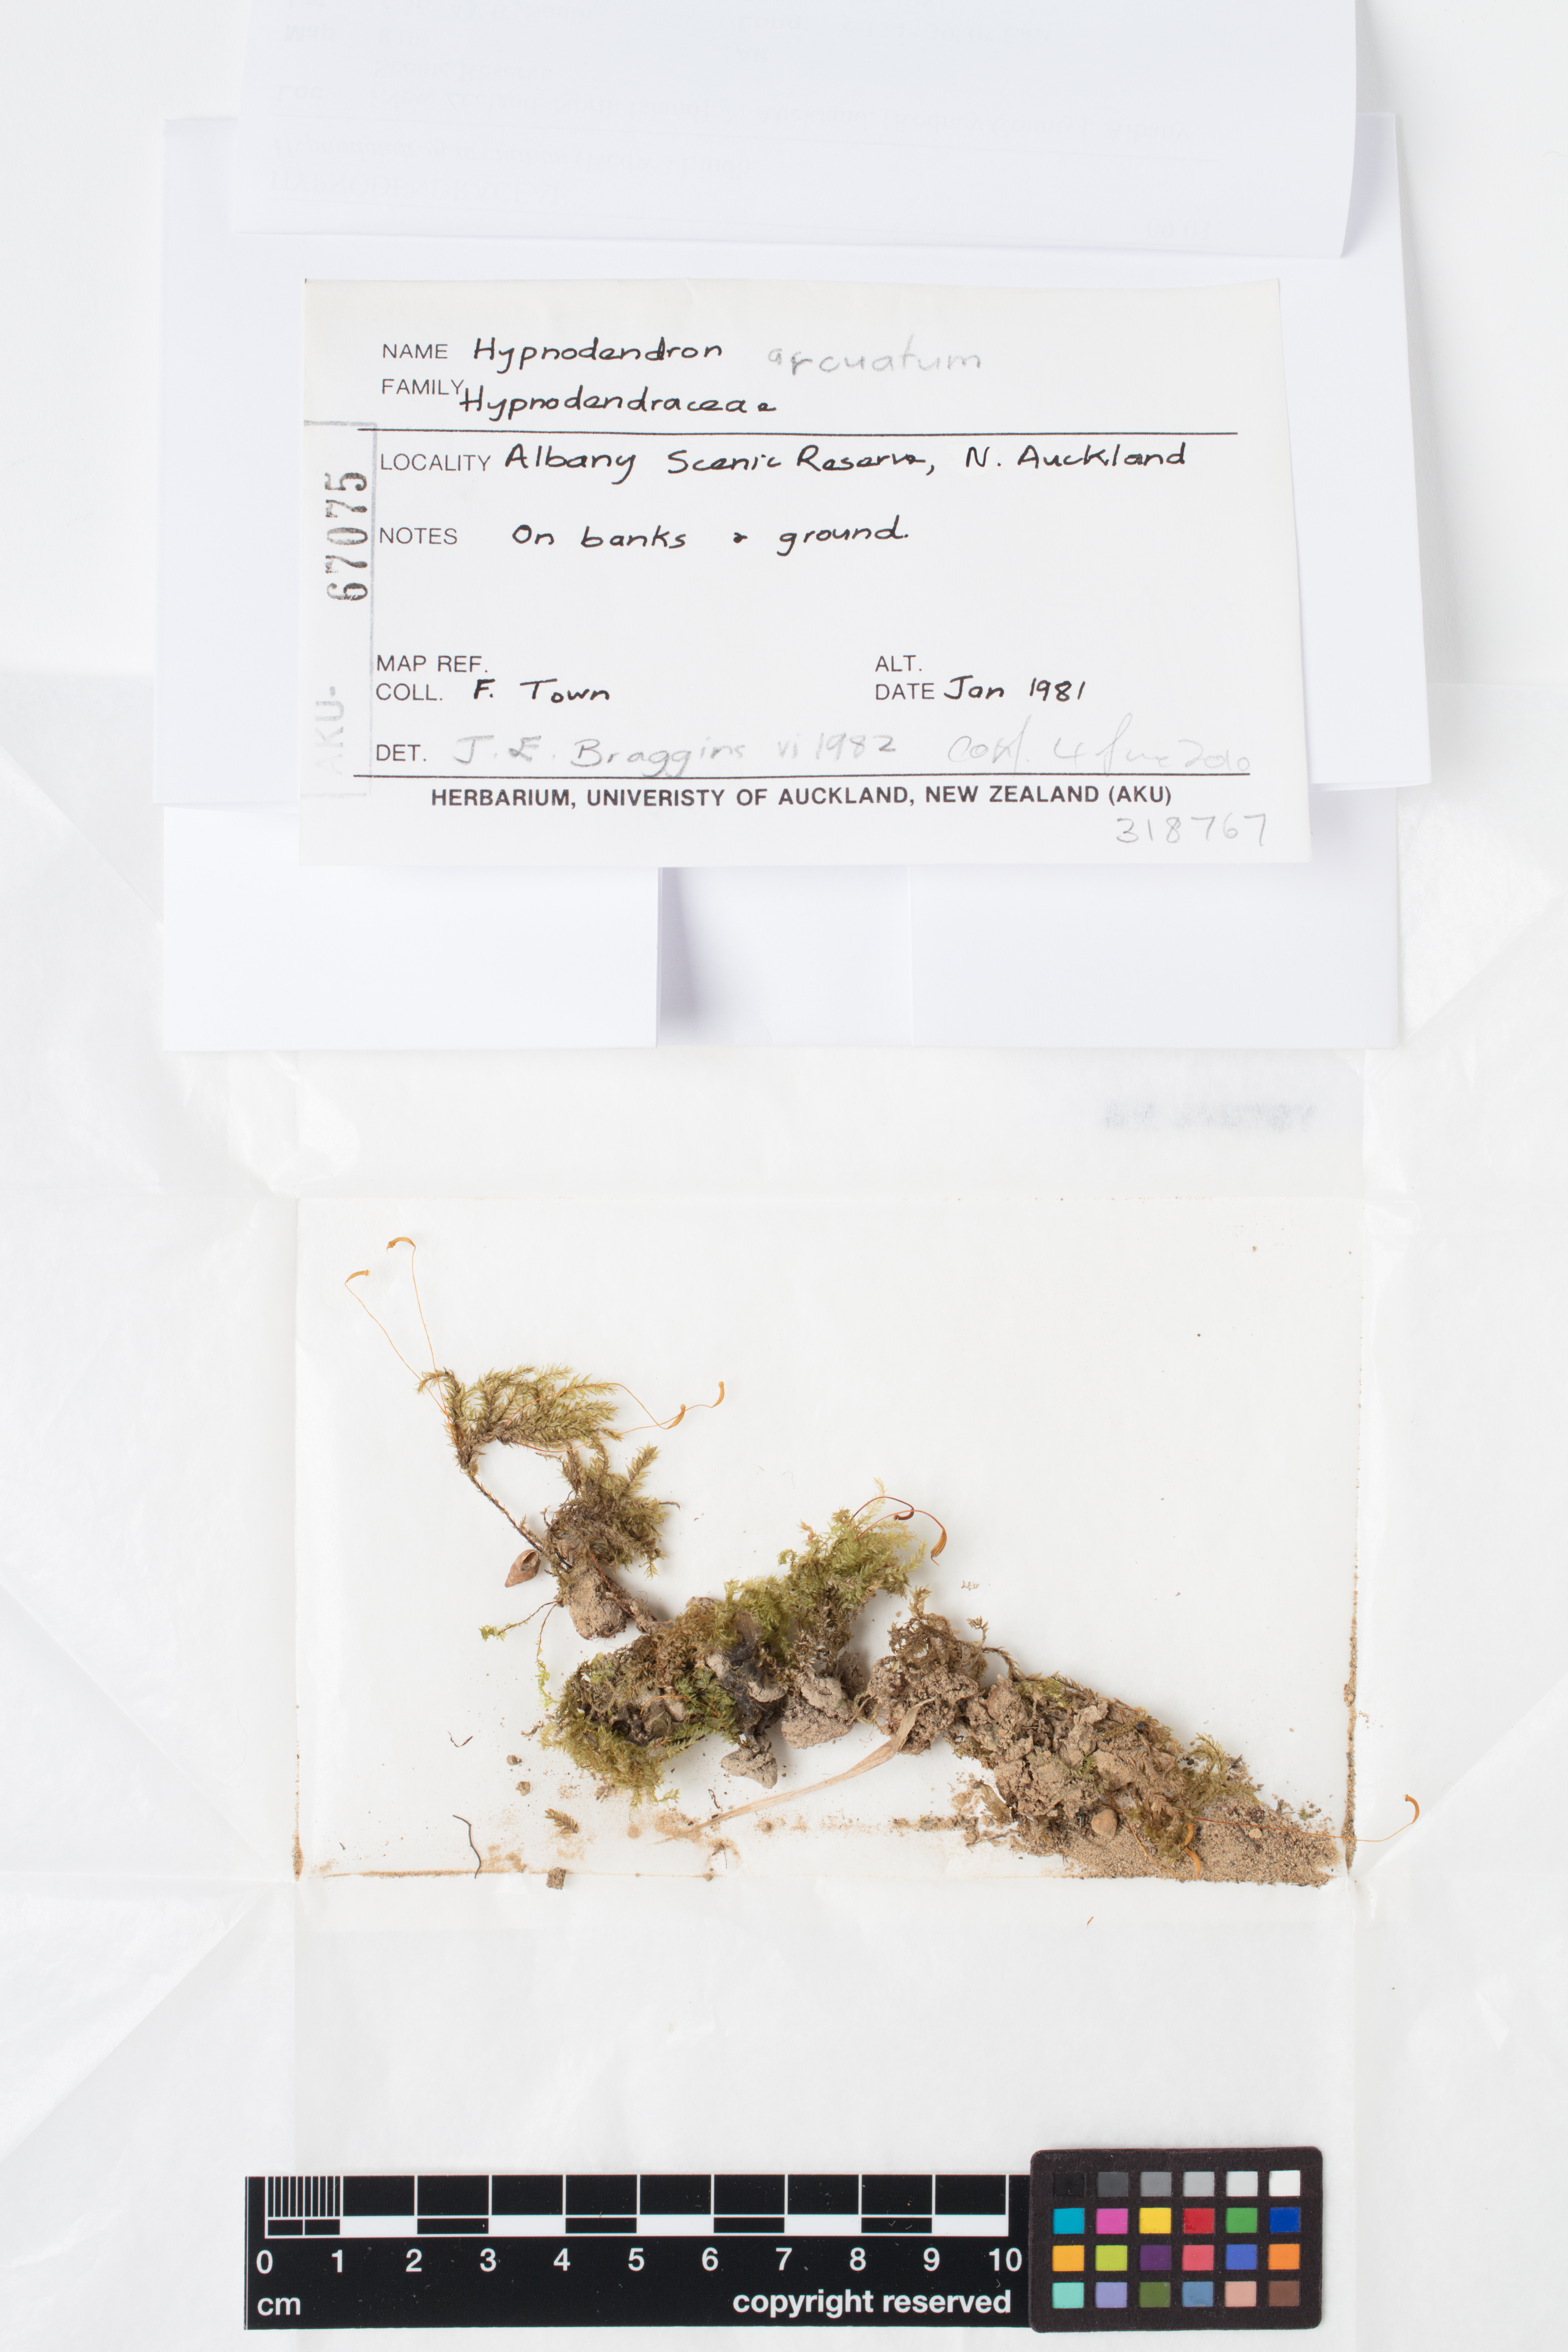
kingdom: Plantae
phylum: Bryophyta
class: Bryopsida
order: Hypnodendrales
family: Spiridentaceae
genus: Hypnodendron
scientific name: Hypnodendron arcuatum
